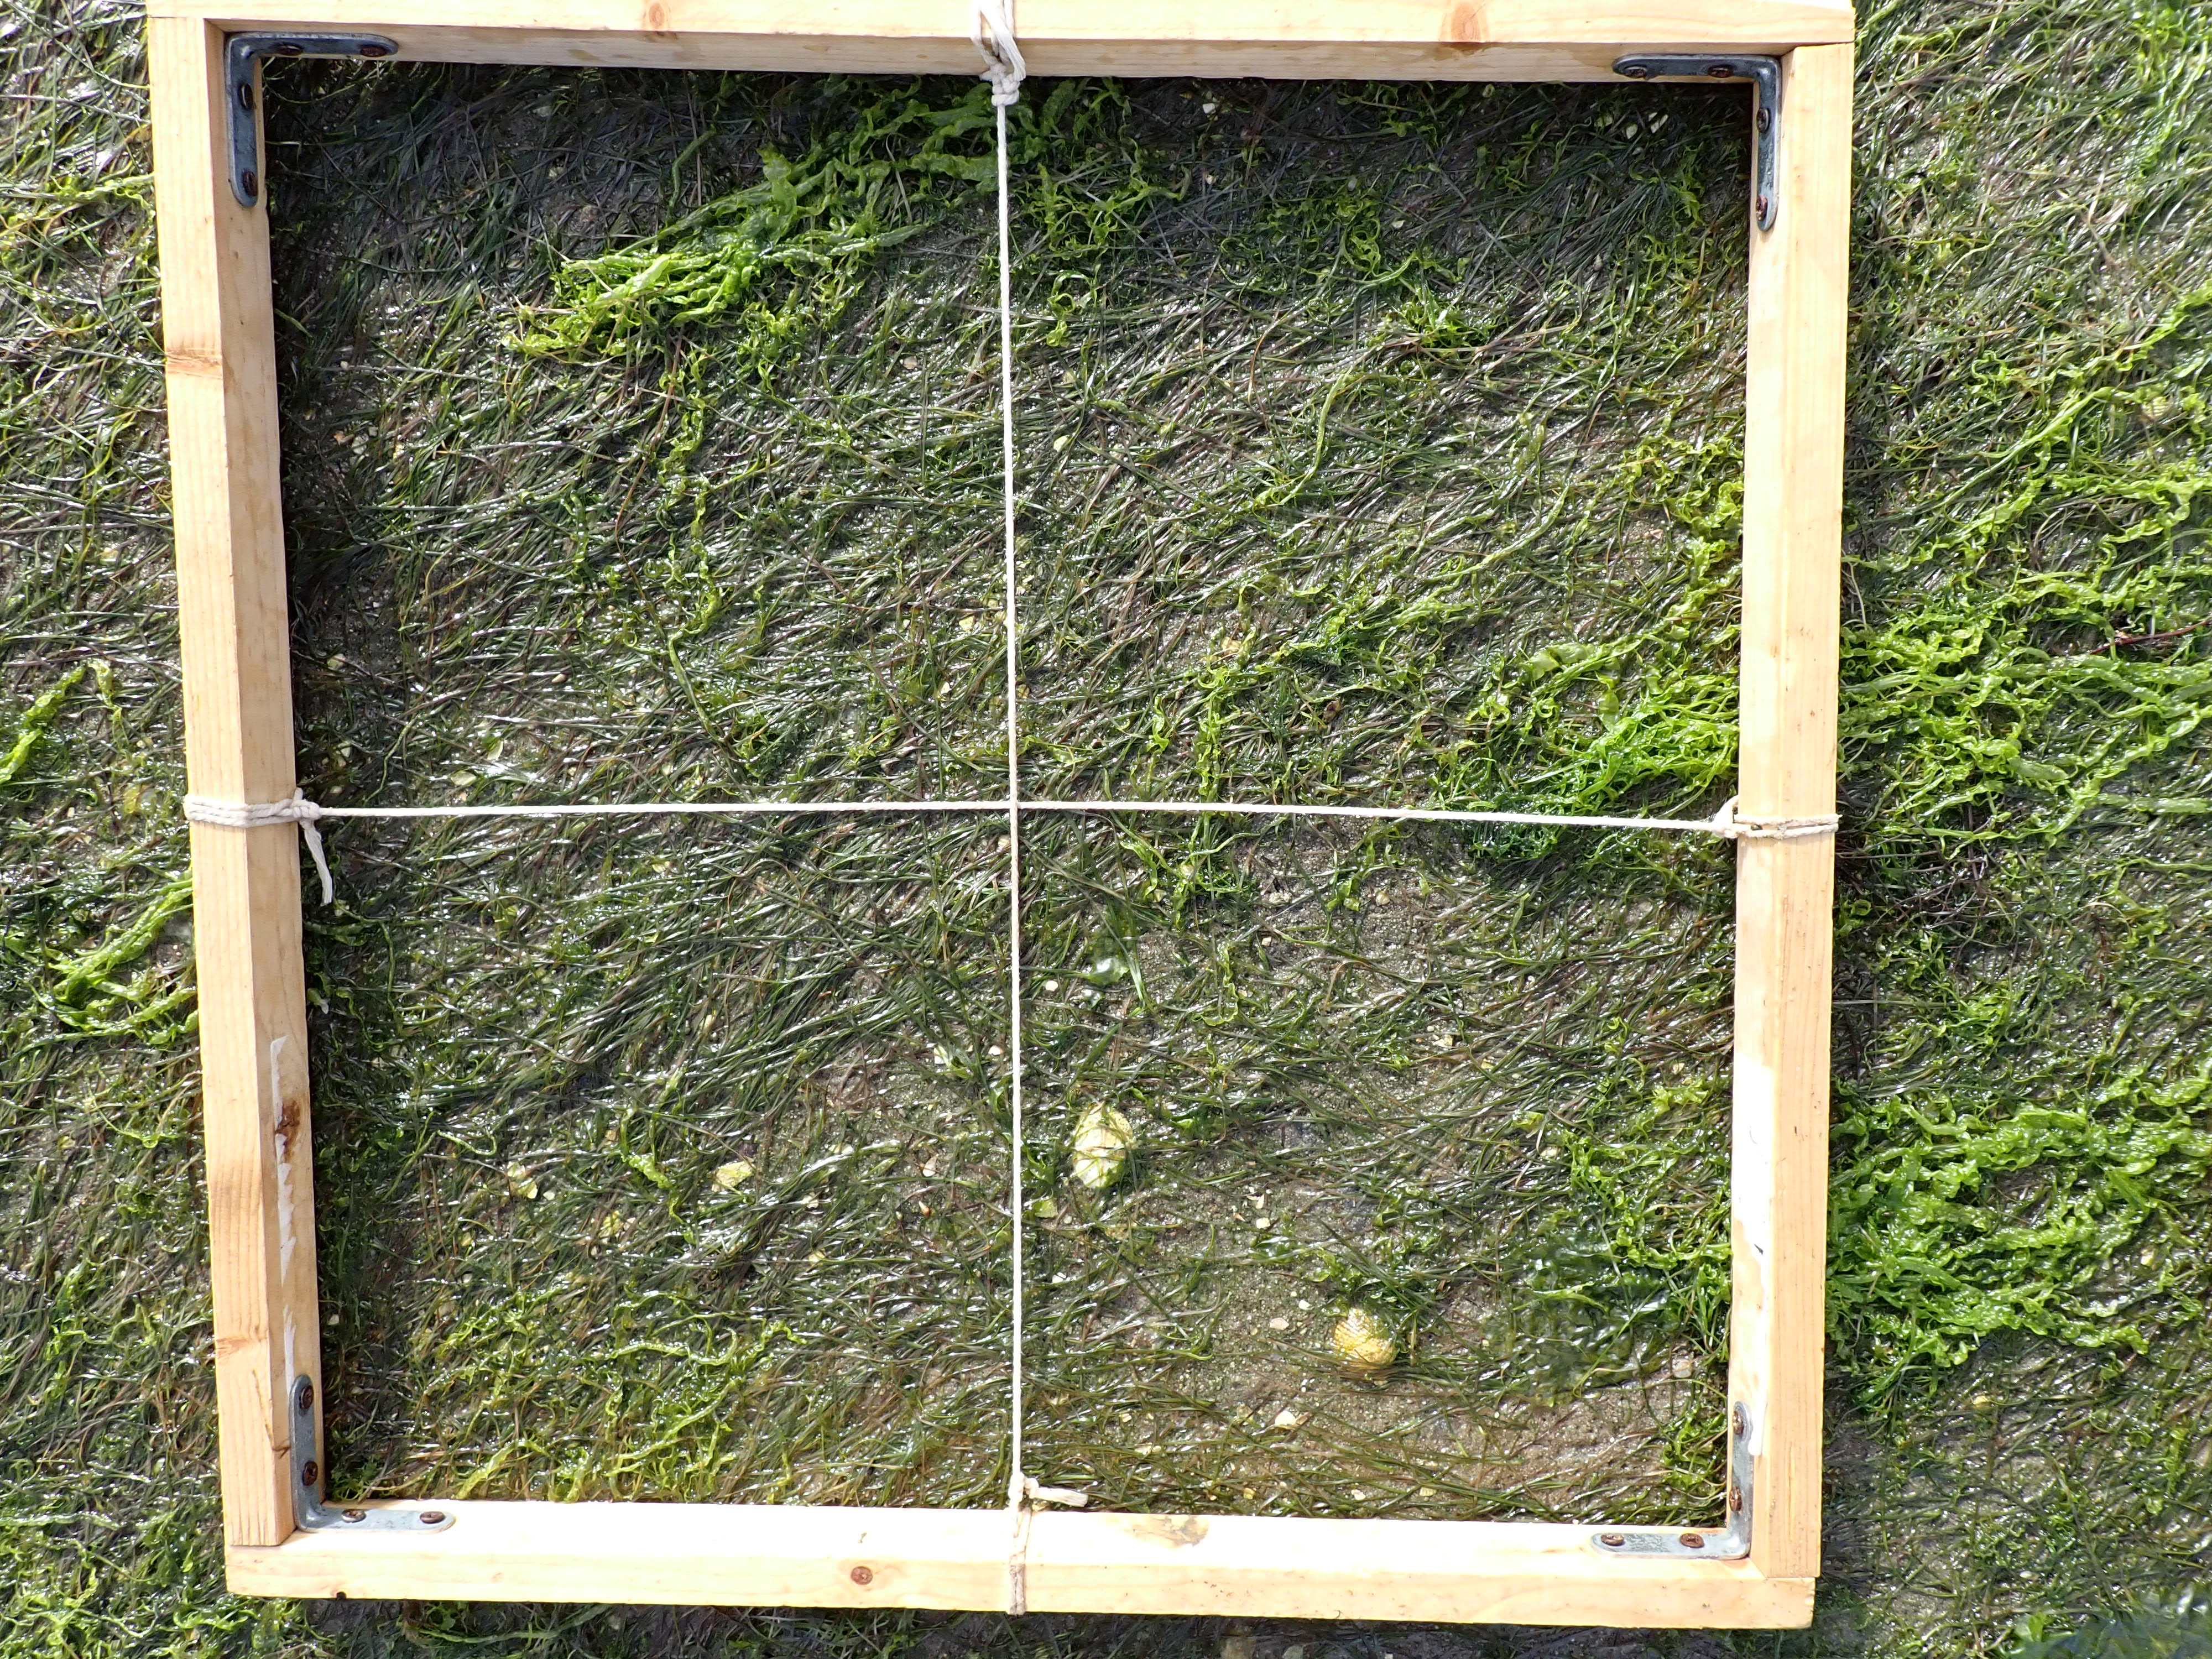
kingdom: Plantae
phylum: Tracheophyta
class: Liliopsida
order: Alismatales
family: Zosteraceae
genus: Zostera
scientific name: Zostera noltii
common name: Dwarf eelgrass
